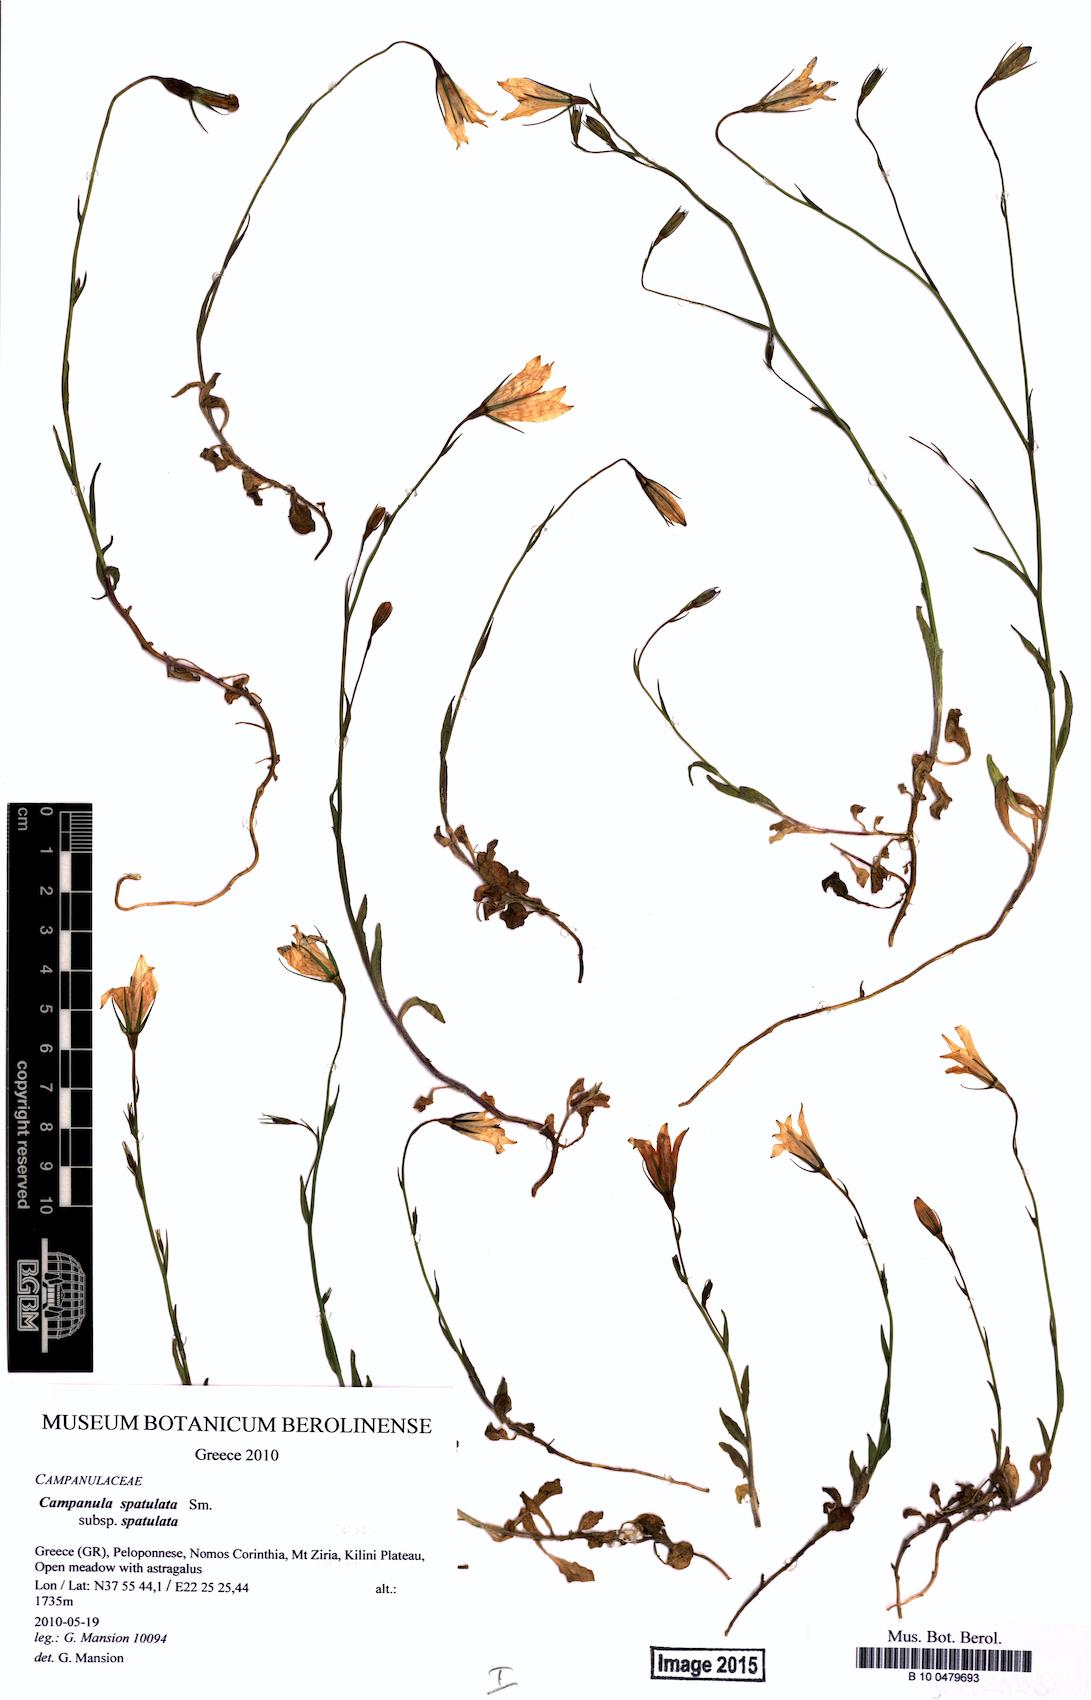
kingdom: Plantae
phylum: Tracheophyta
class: Magnoliopsida
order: Asterales
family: Campanulaceae
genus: Campanula
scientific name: Campanula spatulata
